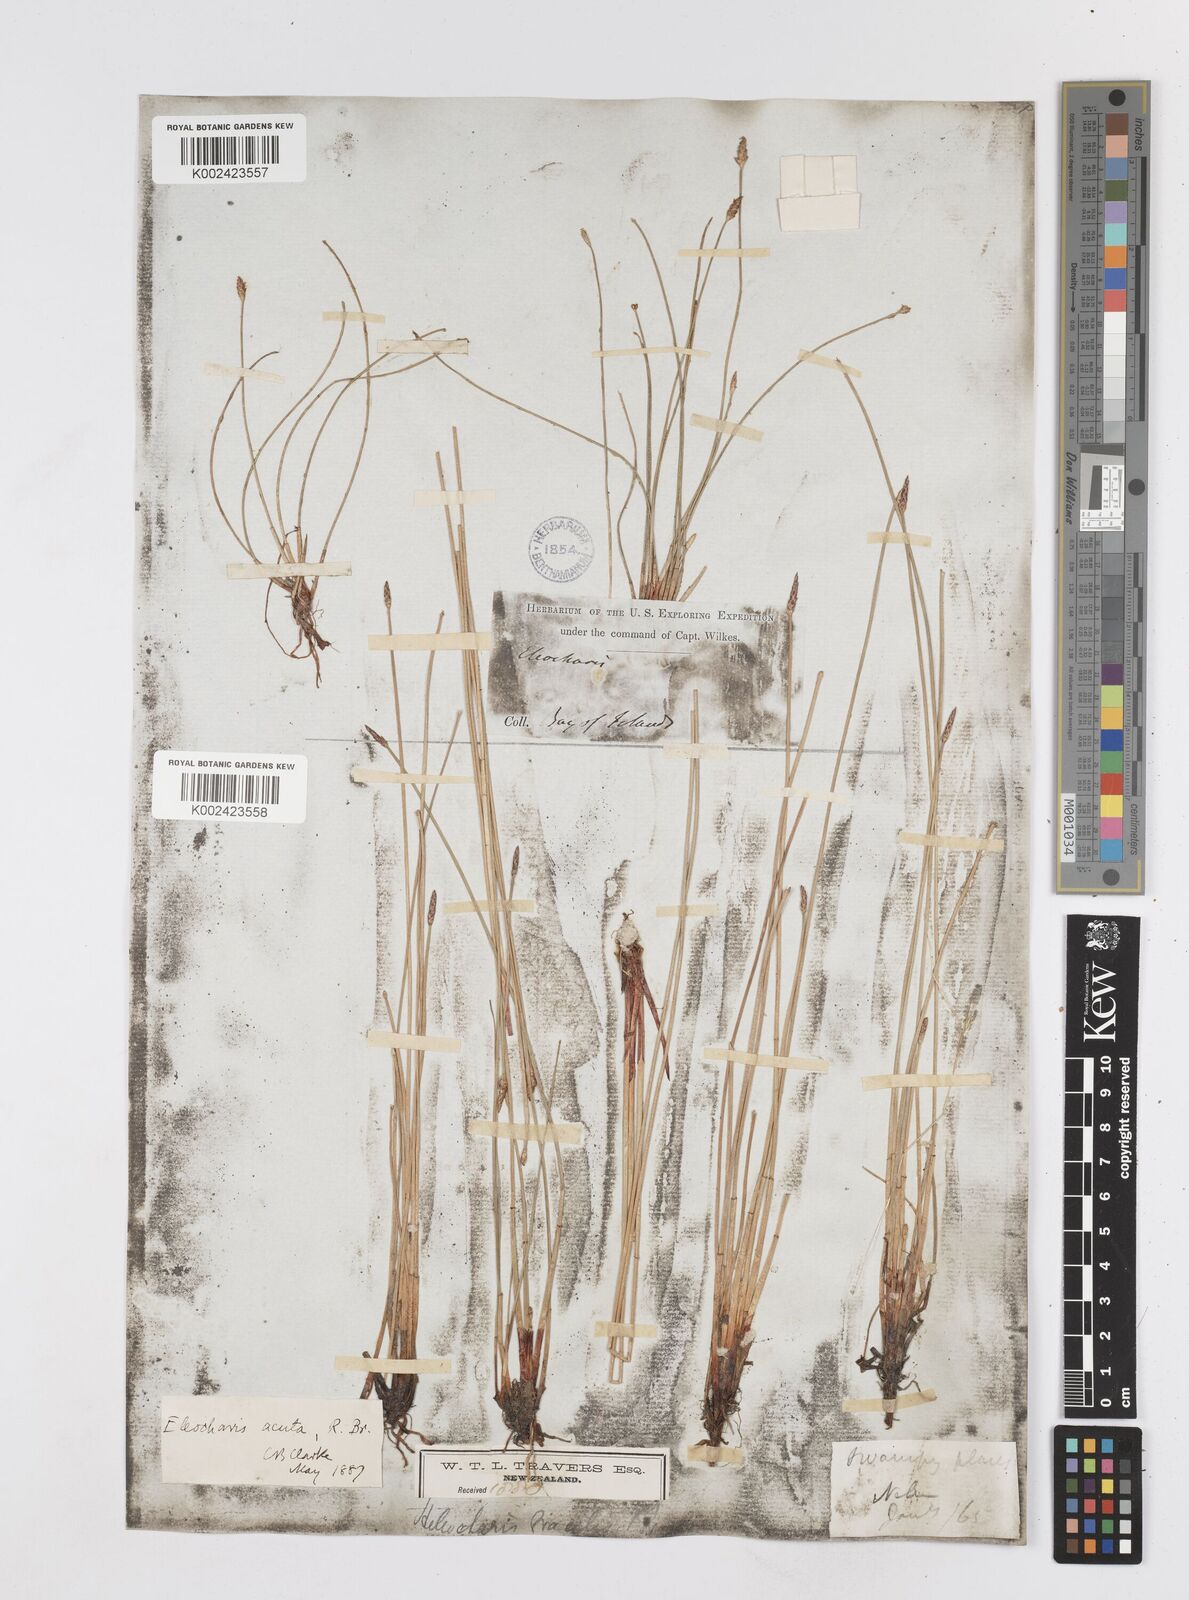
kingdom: Plantae
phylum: Tracheophyta
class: Liliopsida
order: Poales
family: Cyperaceae
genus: Eleocharis
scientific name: Eleocharis acuta
